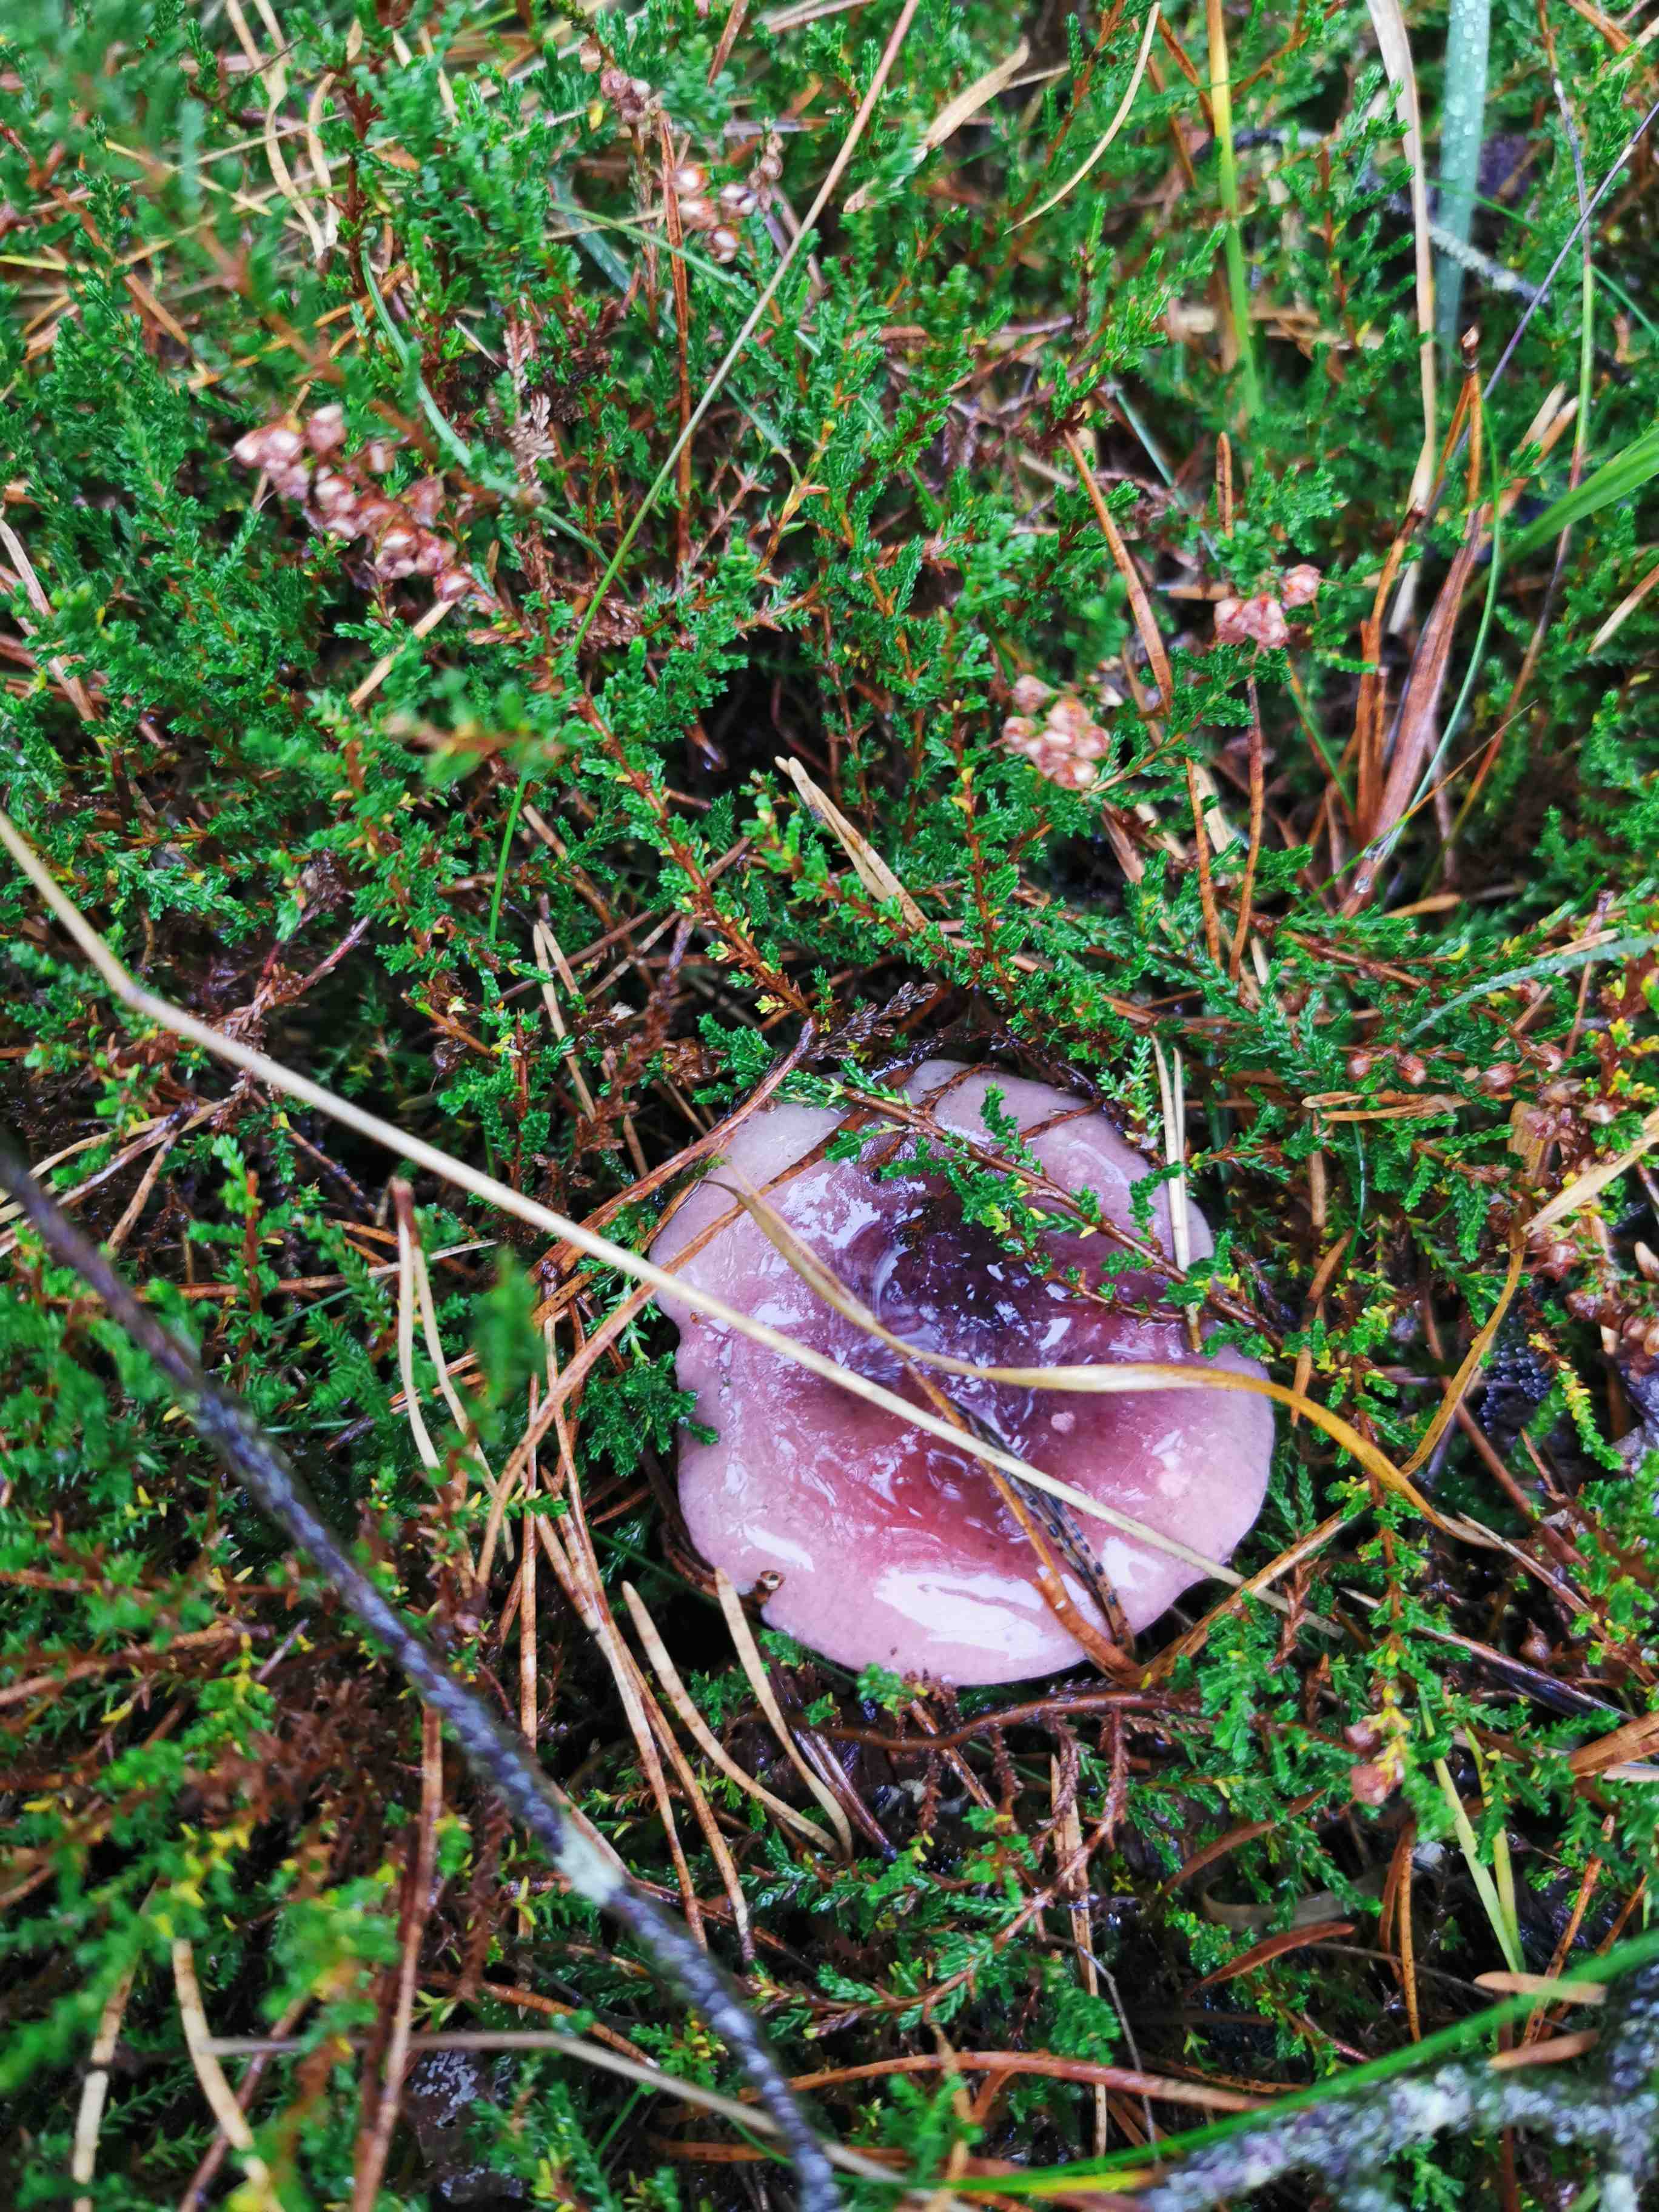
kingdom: Fungi
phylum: Basidiomycota
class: Agaricomycetes
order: Russulales
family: Russulaceae
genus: Russula
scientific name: Russula
